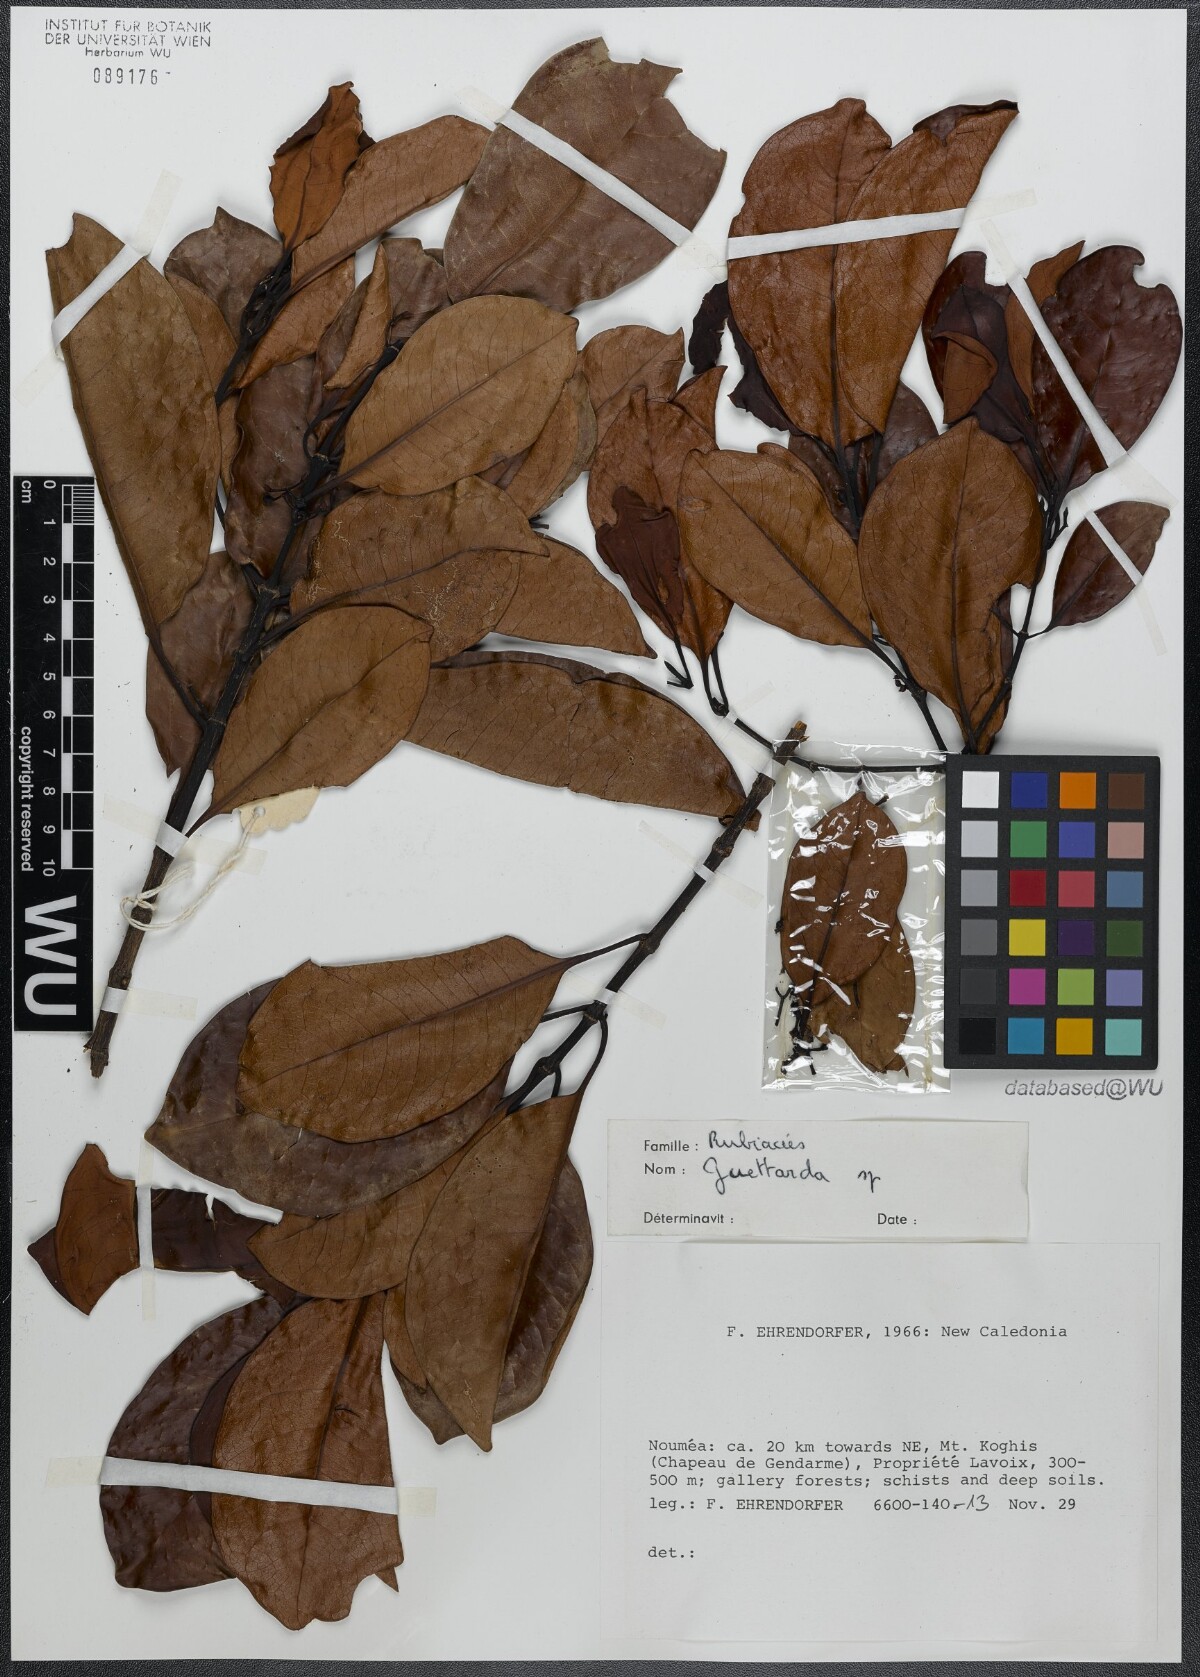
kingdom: Plantae
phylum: Tracheophyta
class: Magnoliopsida
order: Gentianales
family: Rubiaceae
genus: Guettarda
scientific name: Guettarda
